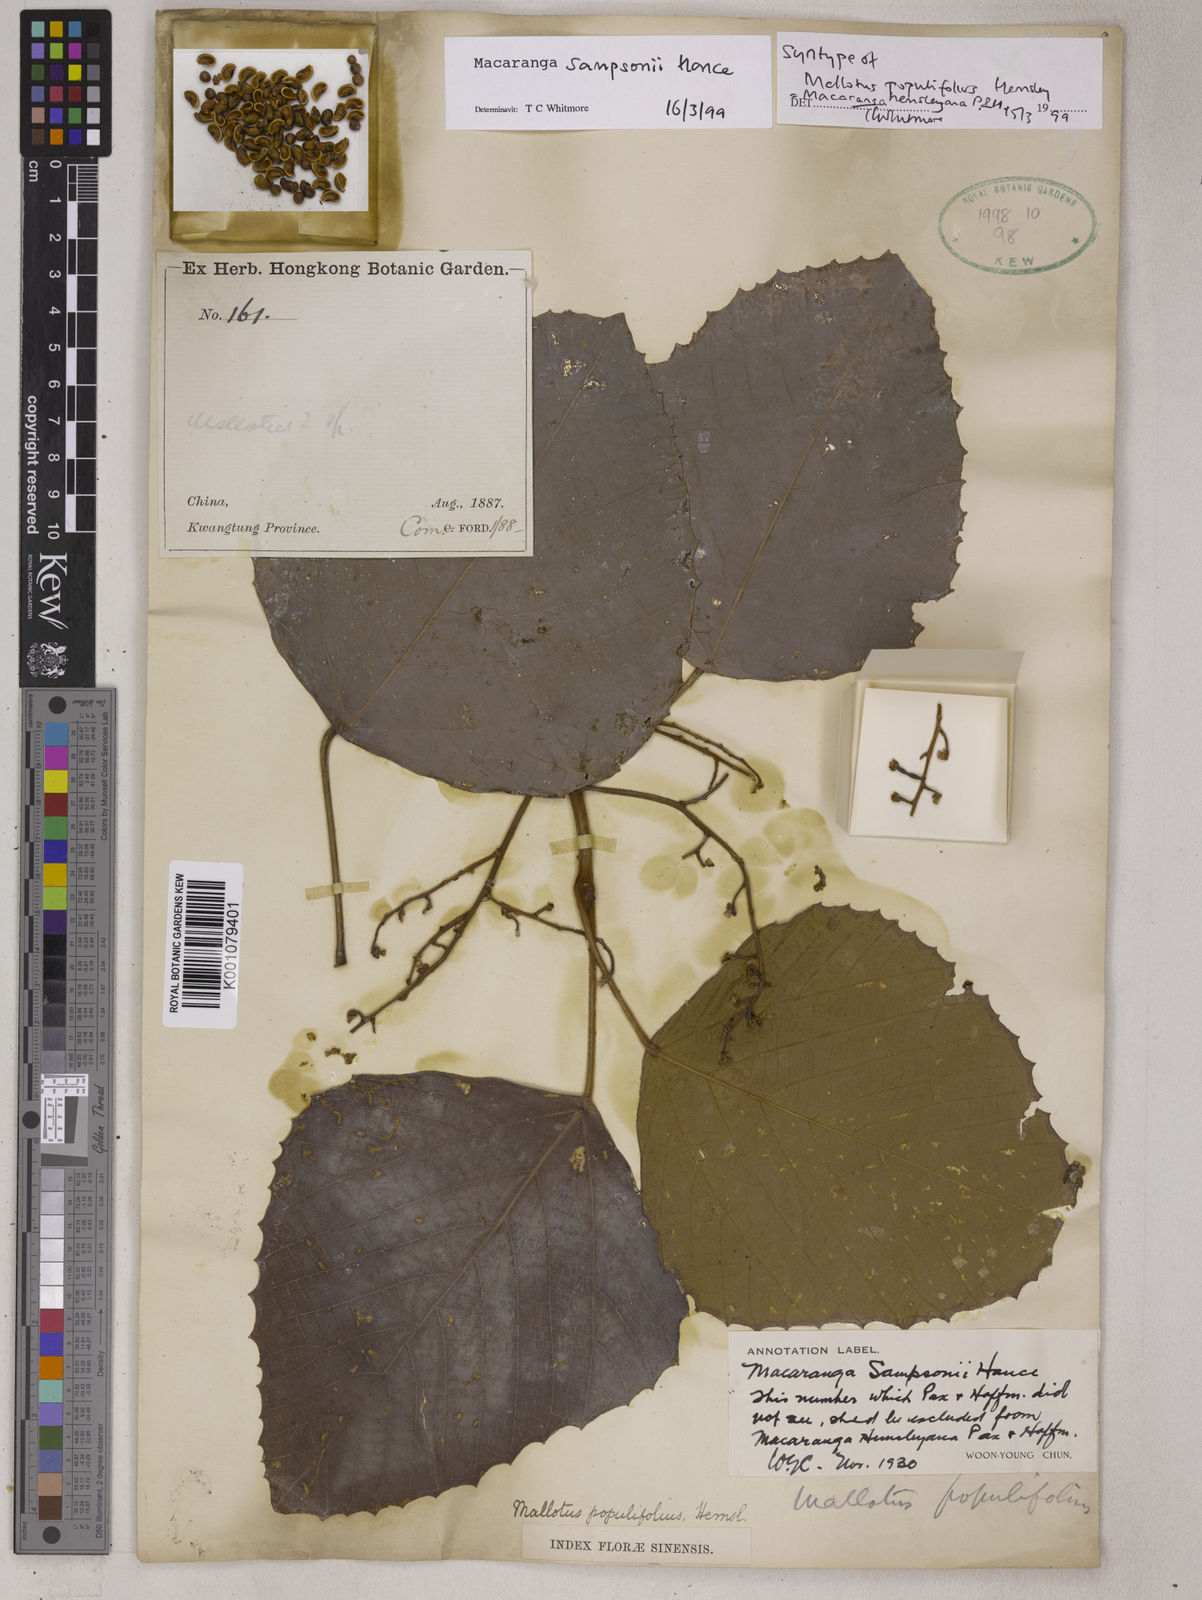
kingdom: Plantae
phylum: Tracheophyta
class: Magnoliopsida
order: Malpighiales
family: Euphorbiaceae
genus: Macaranga
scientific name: Macaranga sampsonii
